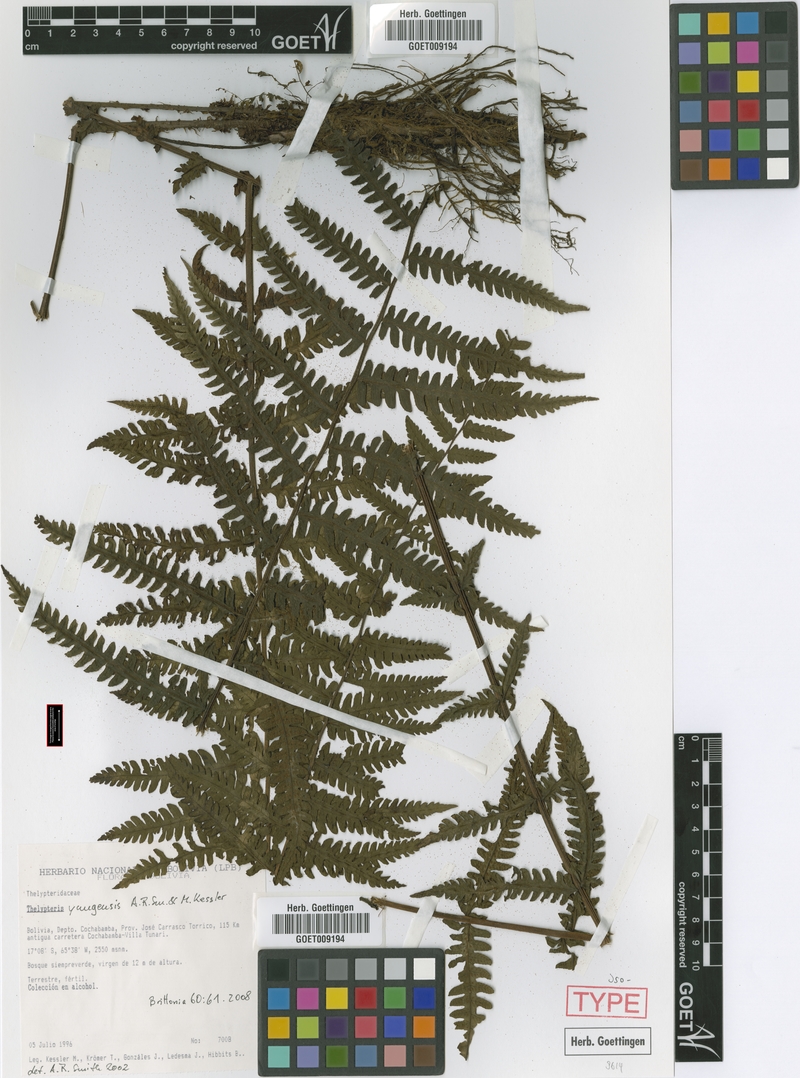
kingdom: Plantae
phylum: Tracheophyta
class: Polypodiopsida
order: Polypodiales
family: Thelypteridaceae
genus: Amauropelta
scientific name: Amauropelta yungensis
